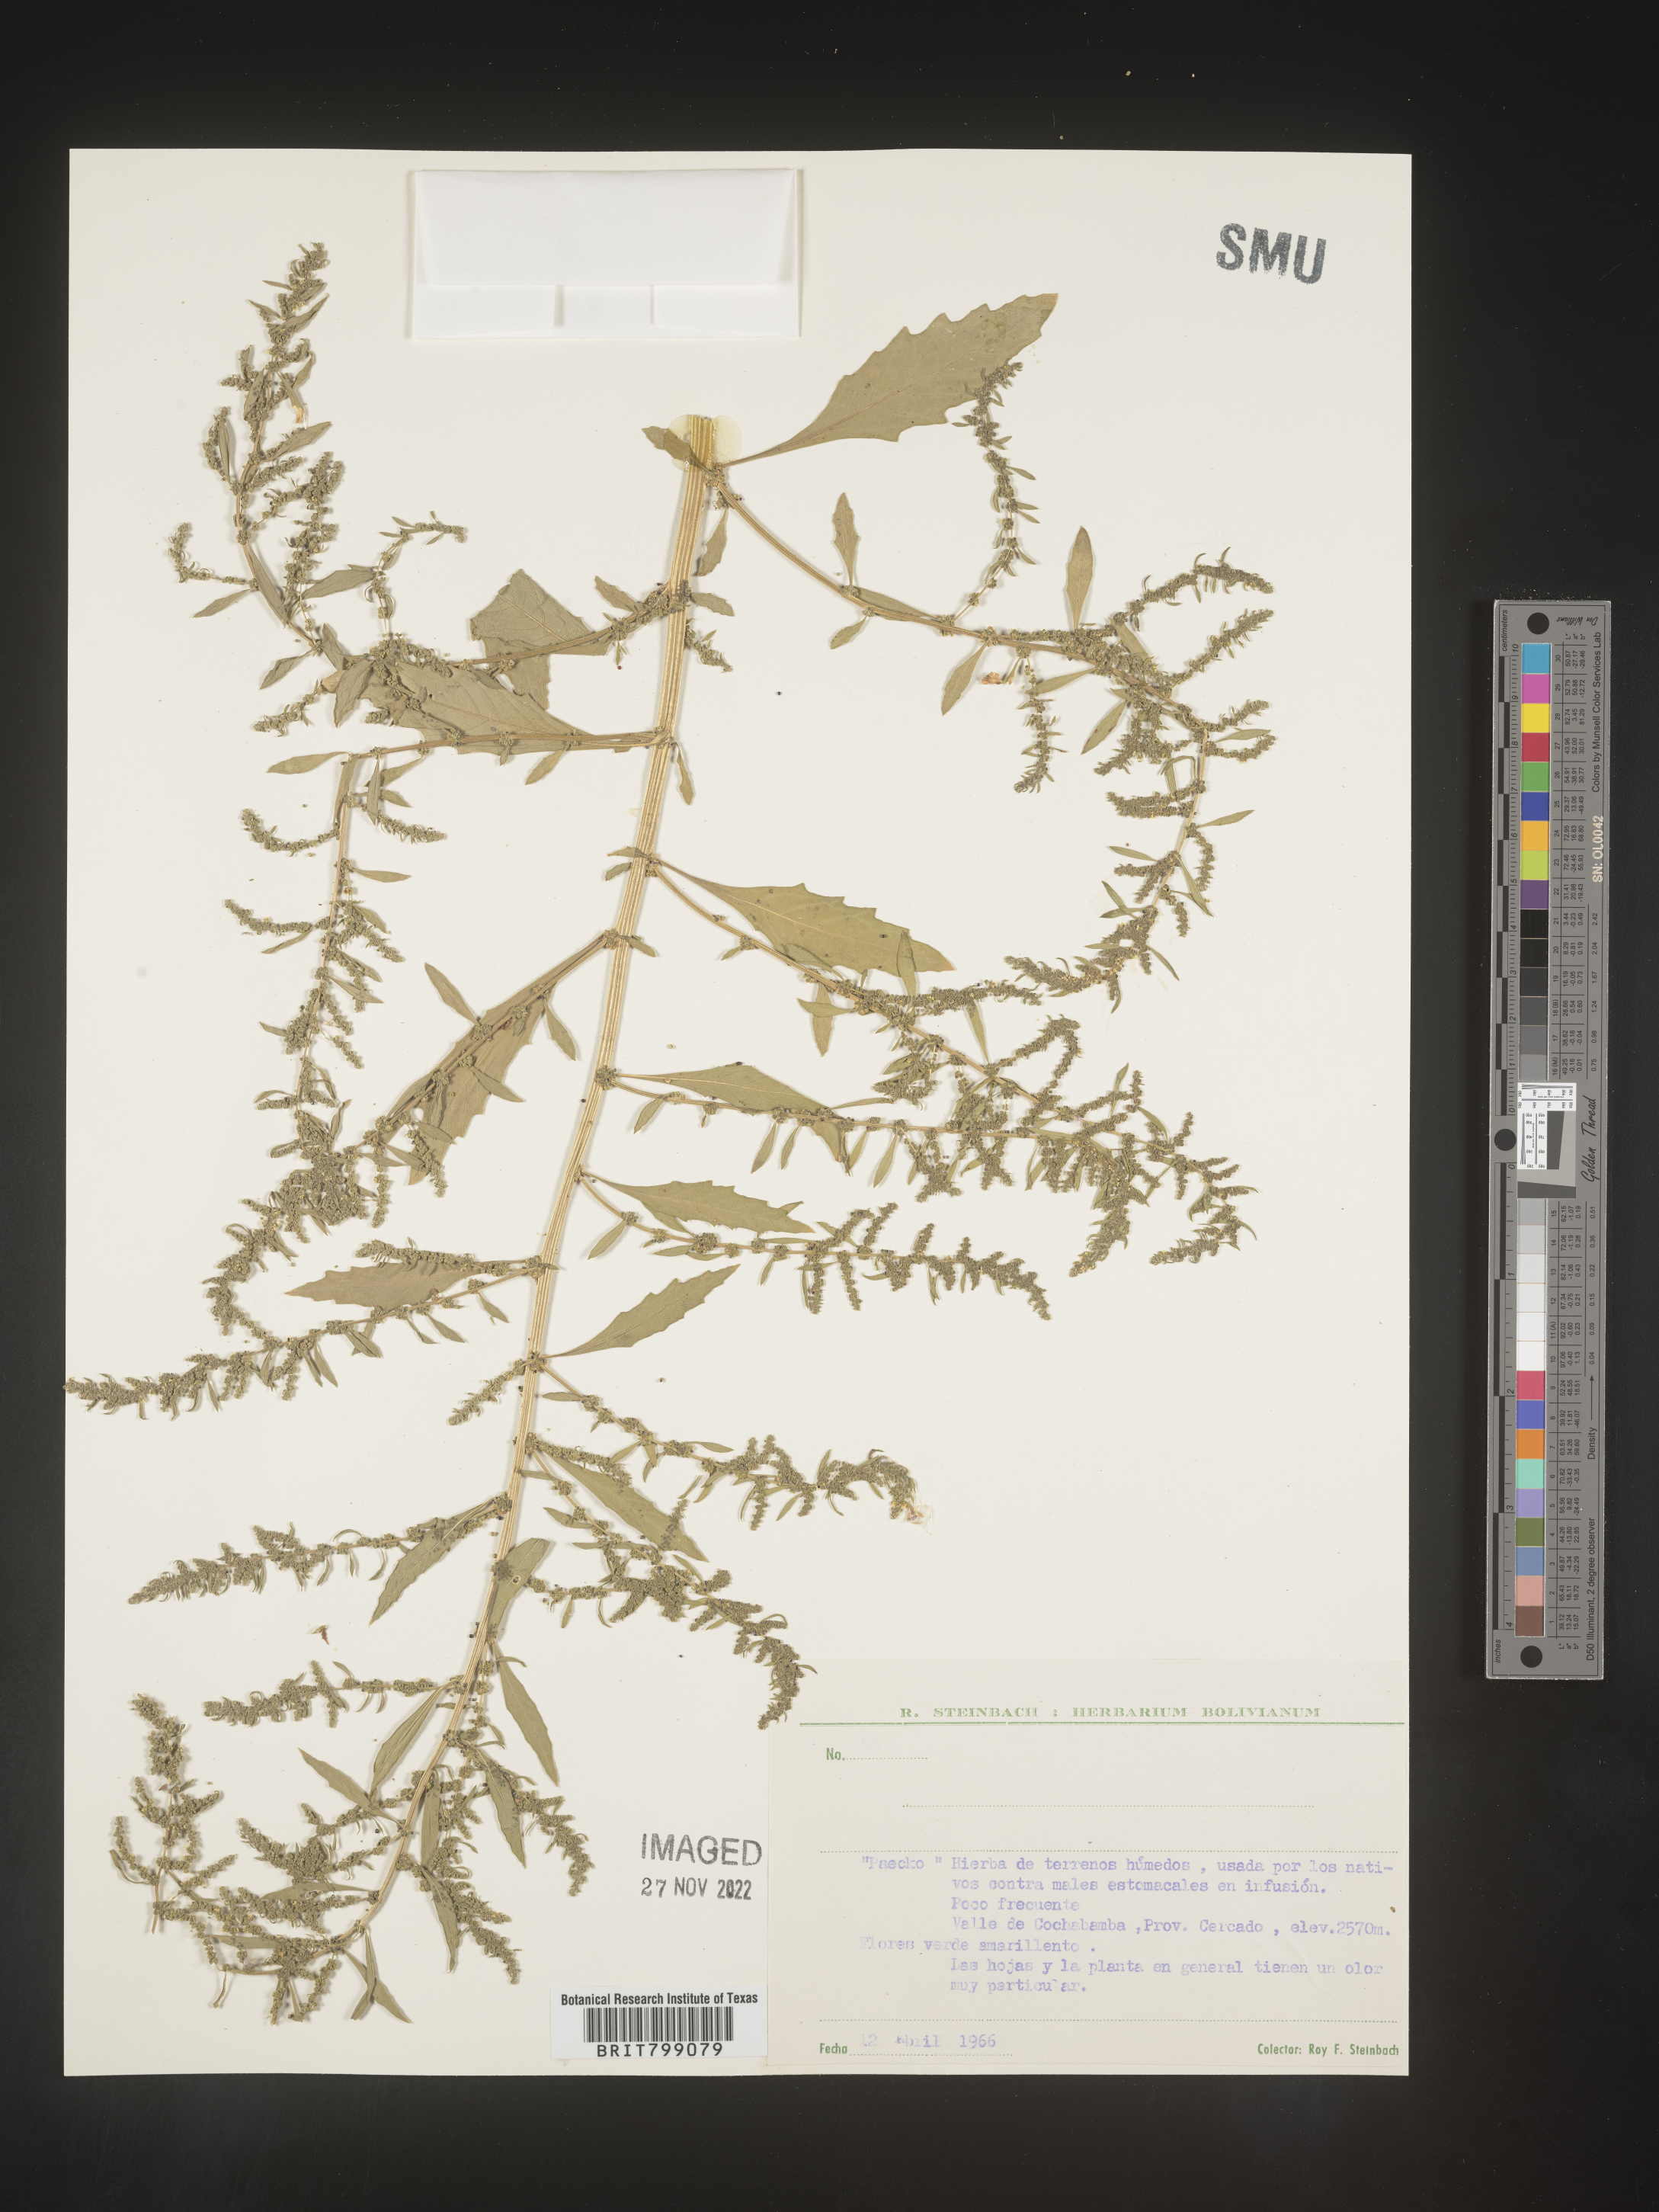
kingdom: Plantae
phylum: Tracheophyta
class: Magnoliopsida
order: Caryophyllales
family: Amaranthaceae
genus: Chenopodium
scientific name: Chenopodium
